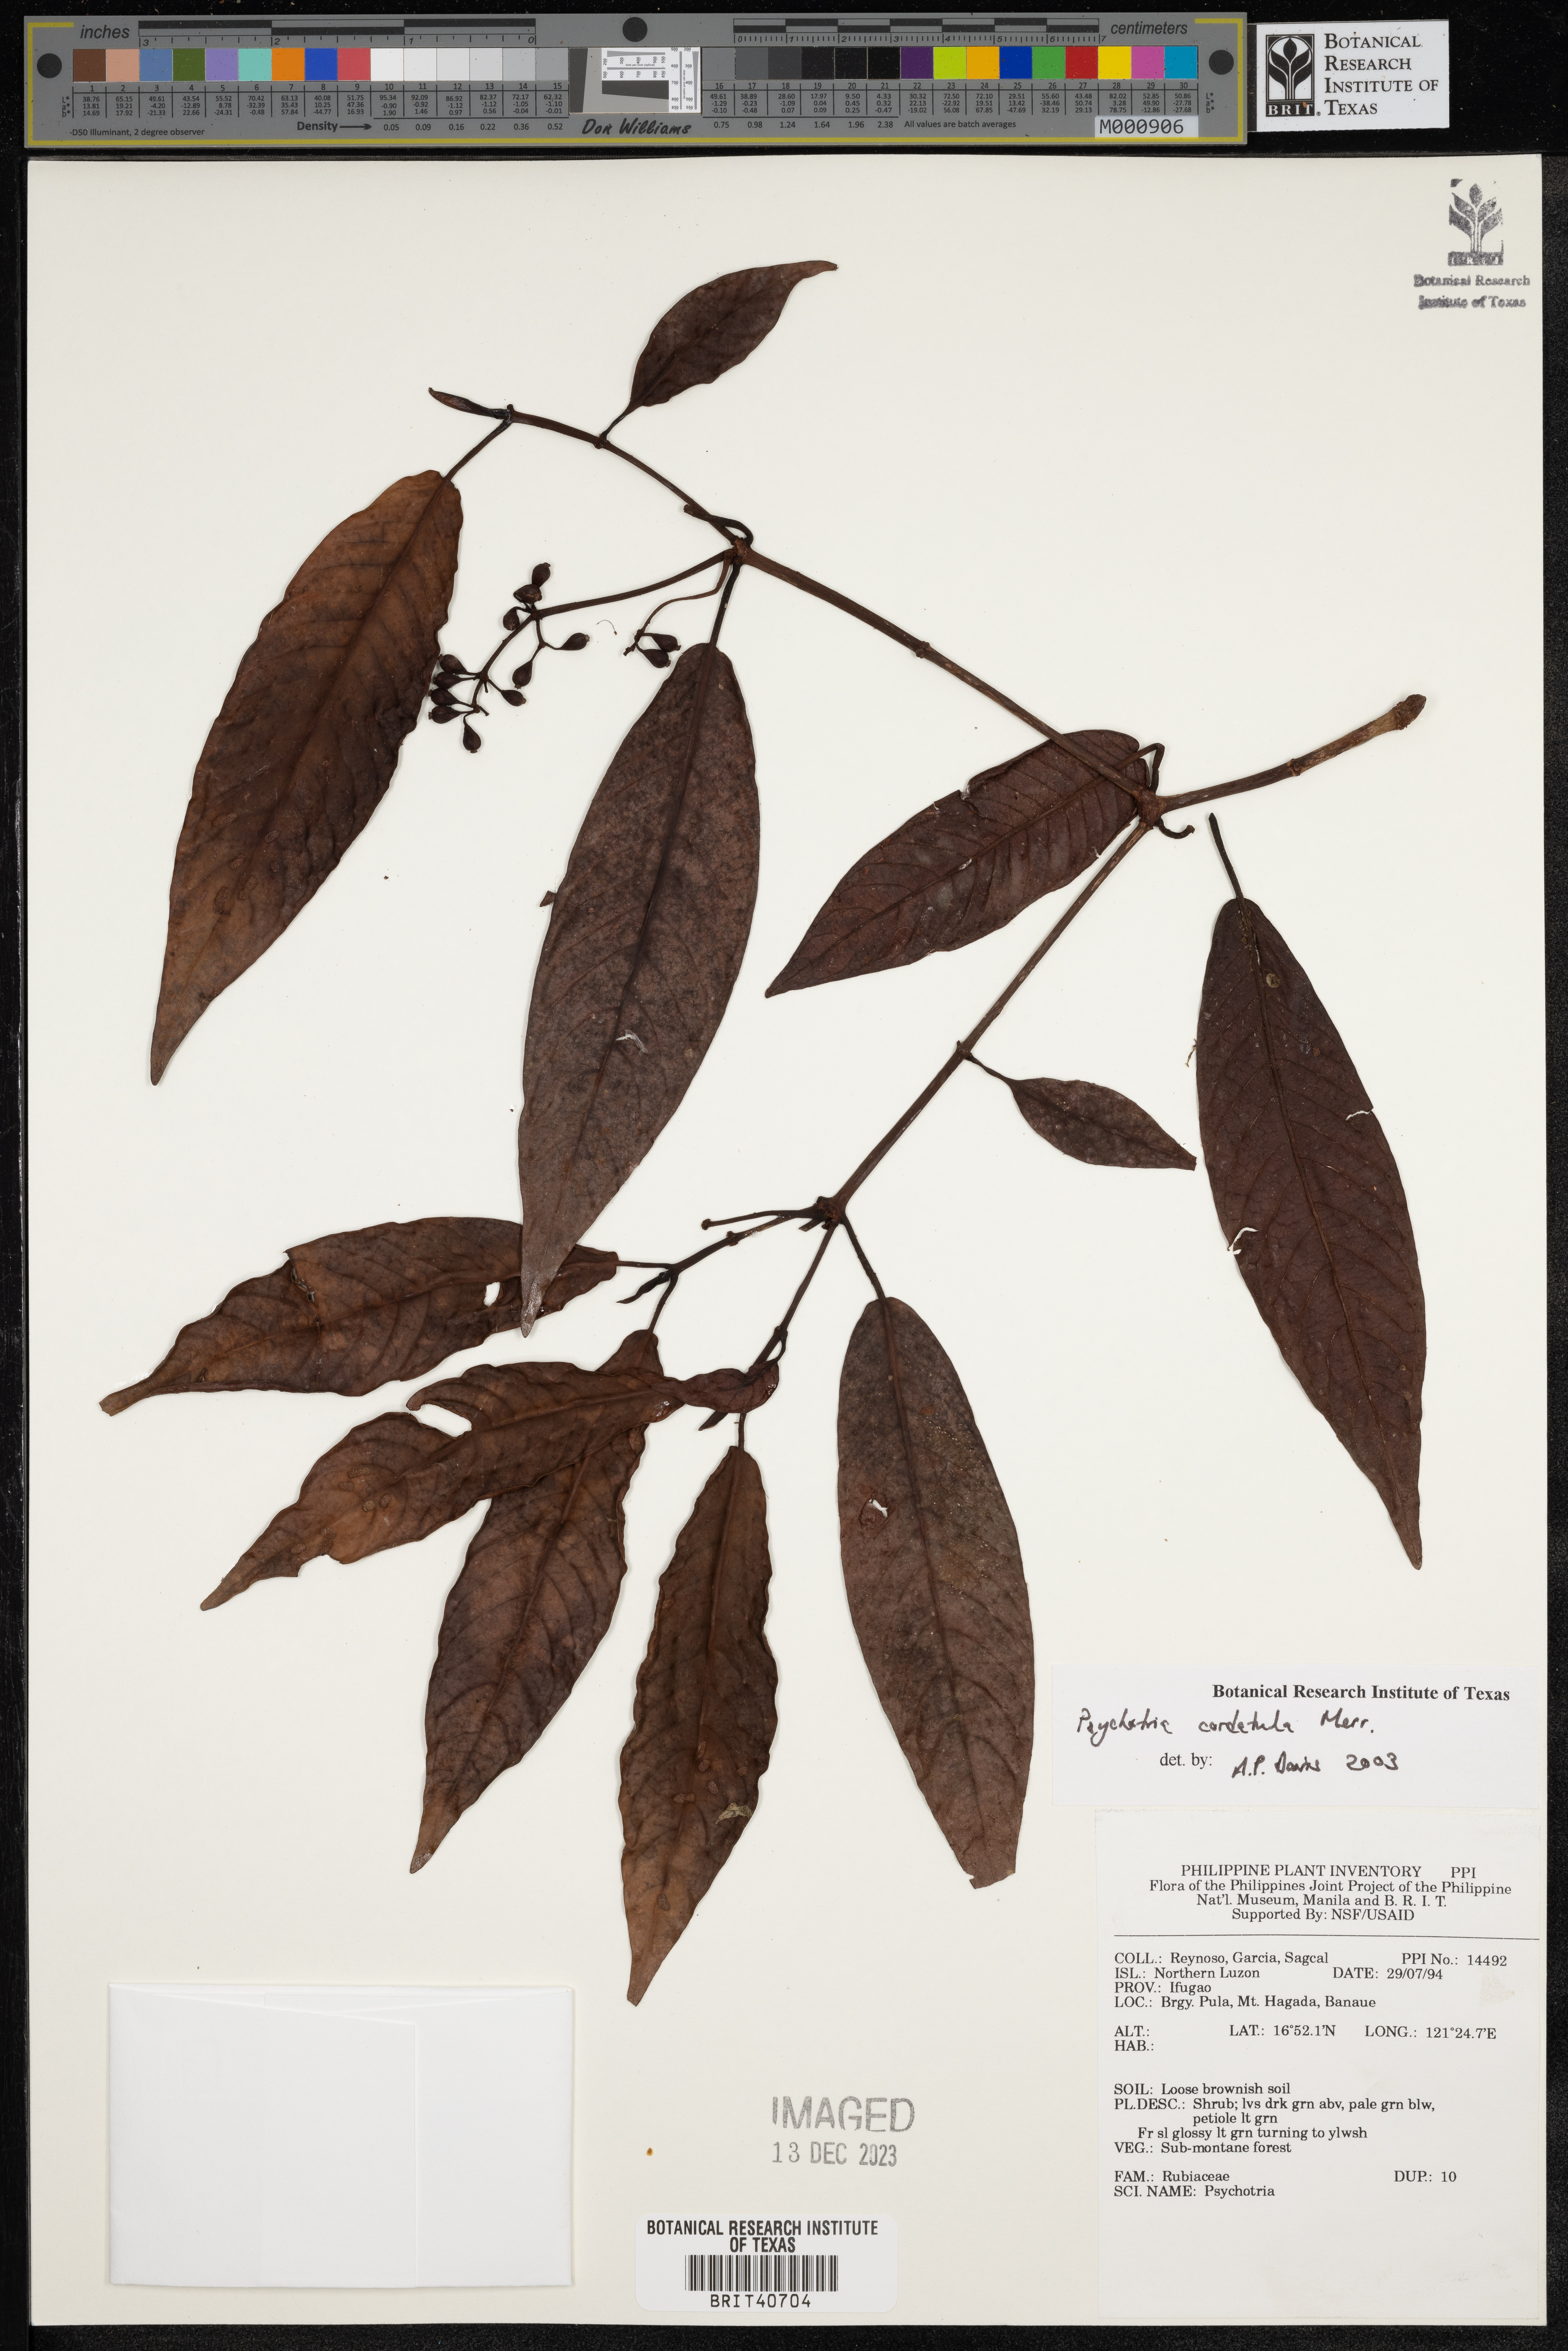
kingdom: Plantae
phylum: Tracheophyta
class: Magnoliopsida
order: Gentianales
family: Rubiaceae
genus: Psychotria
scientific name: Psychotria cordatula
